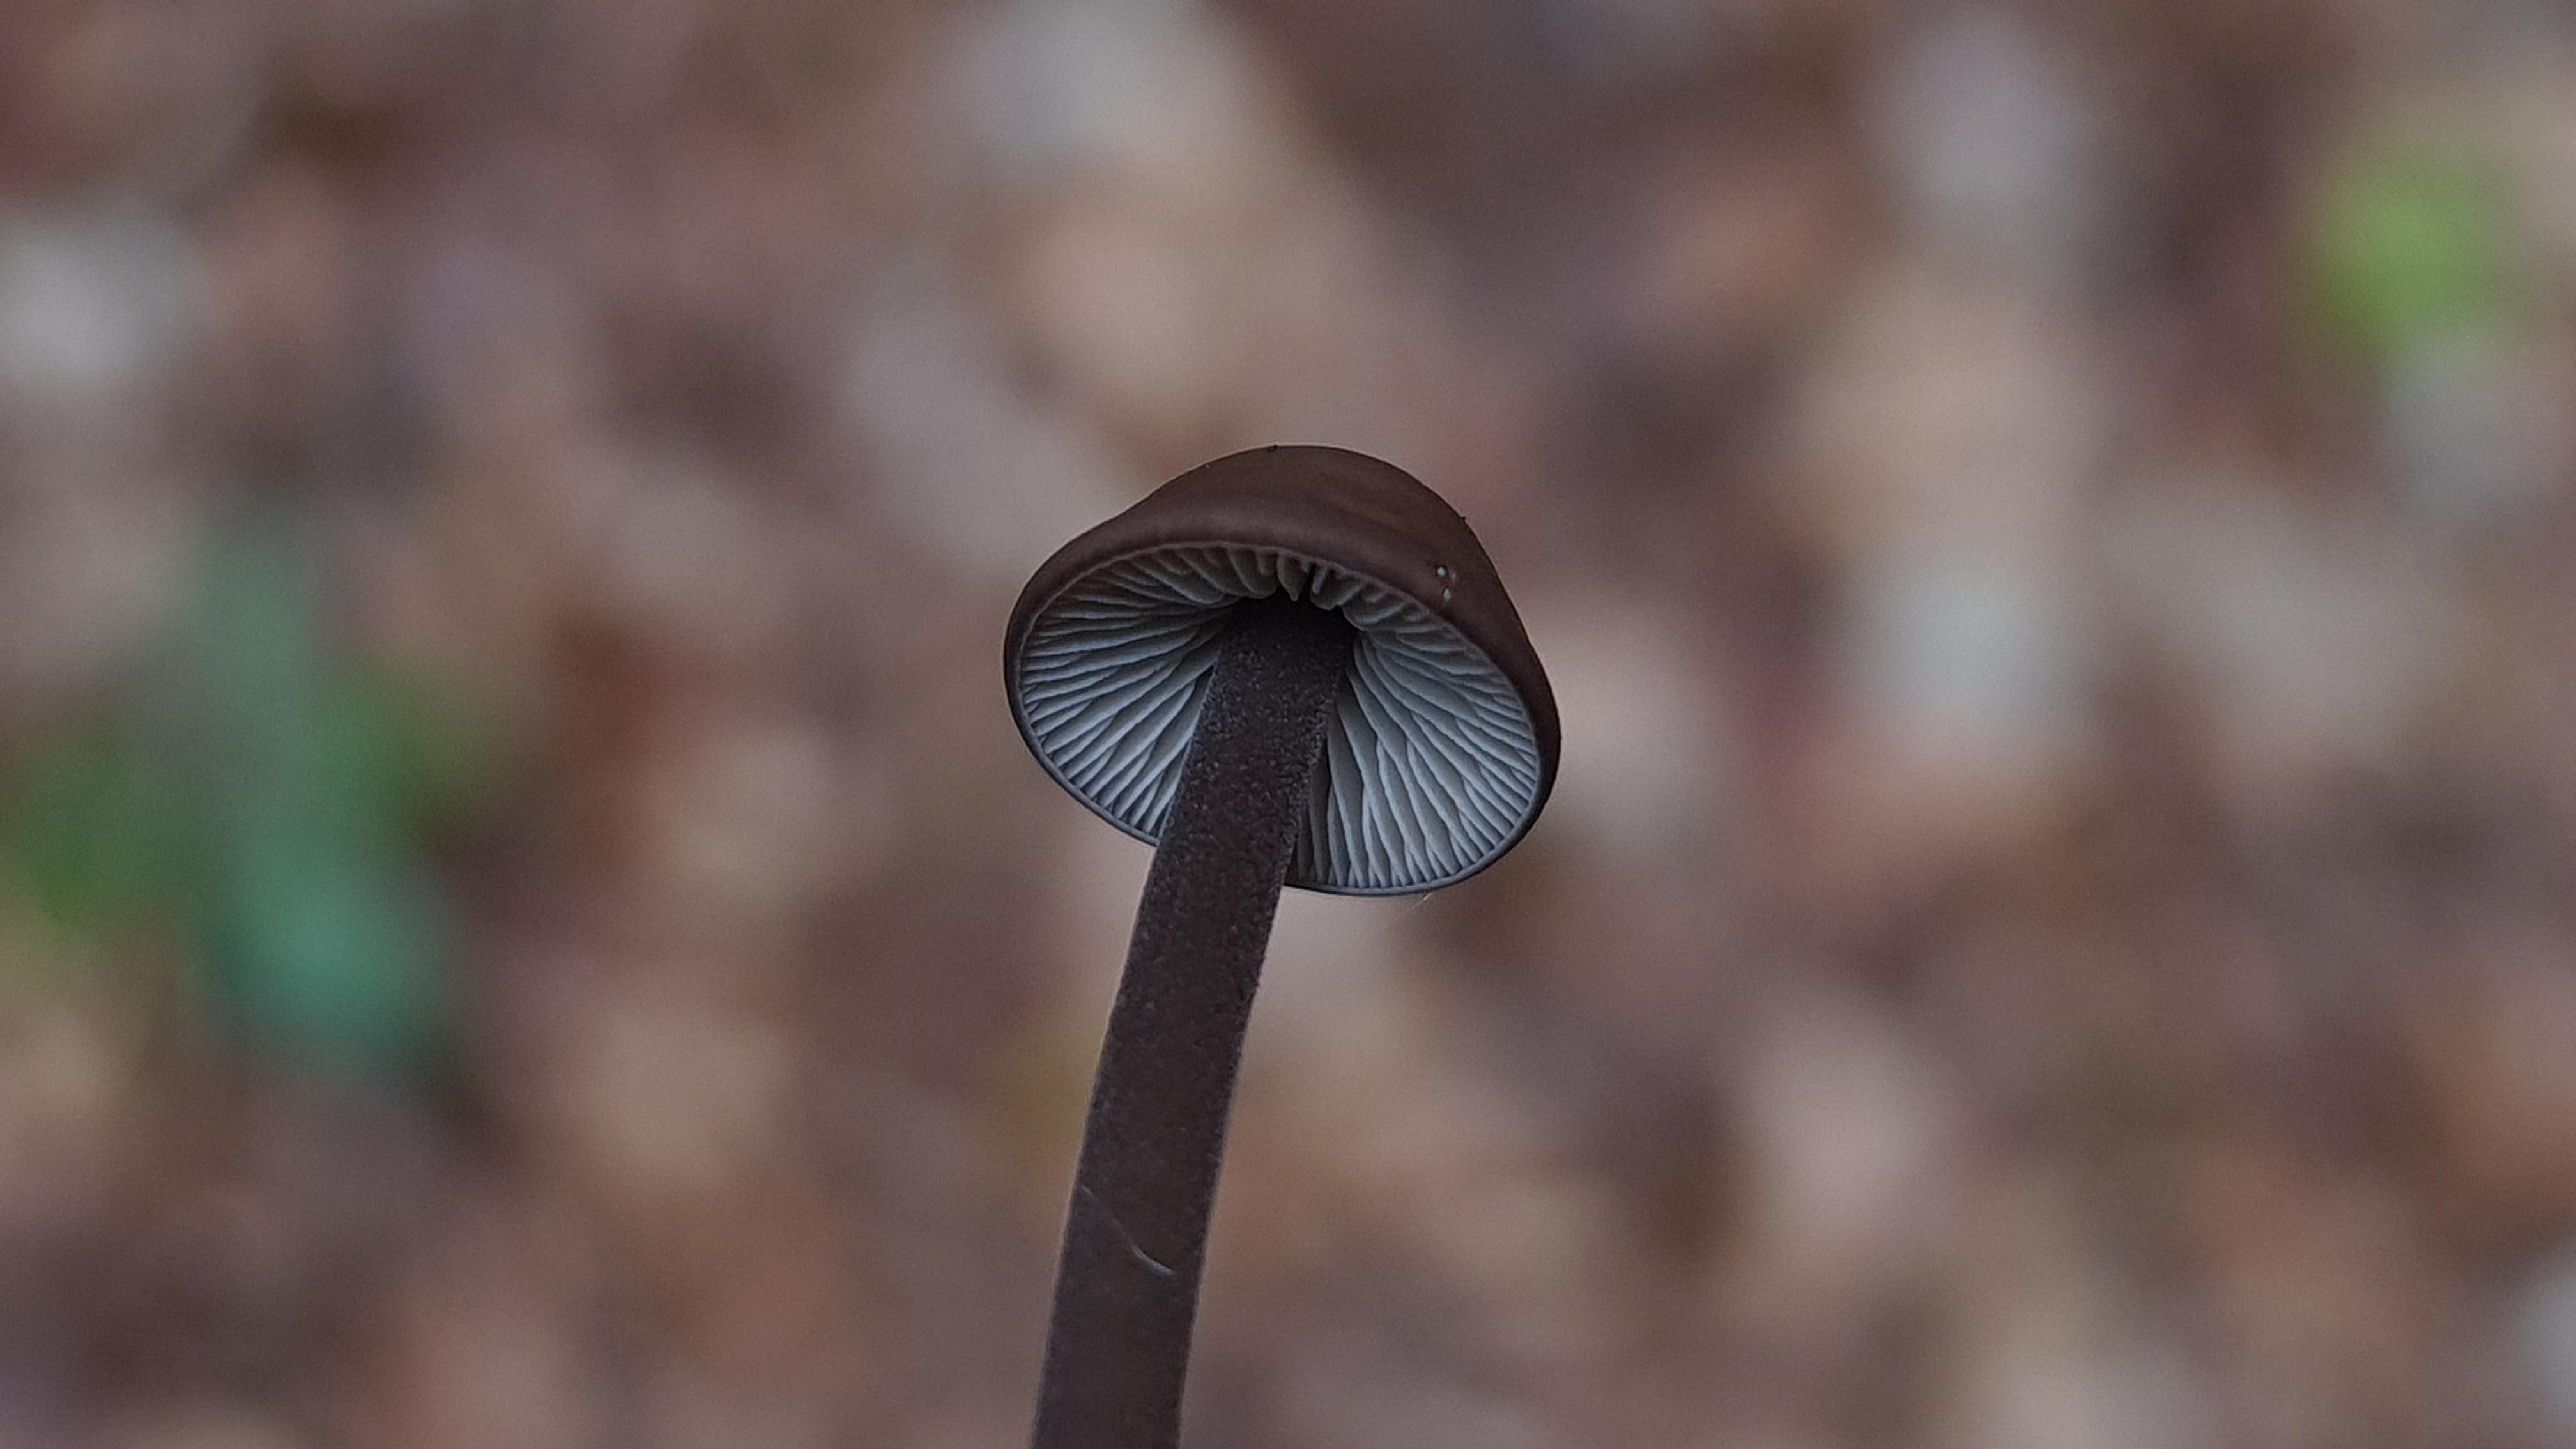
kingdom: Fungi
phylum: Basidiomycota
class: Agaricomycetes
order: Agaricales
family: Omphalotaceae
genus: Mycetinis
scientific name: Mycetinis alliaceus
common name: stor løghat
